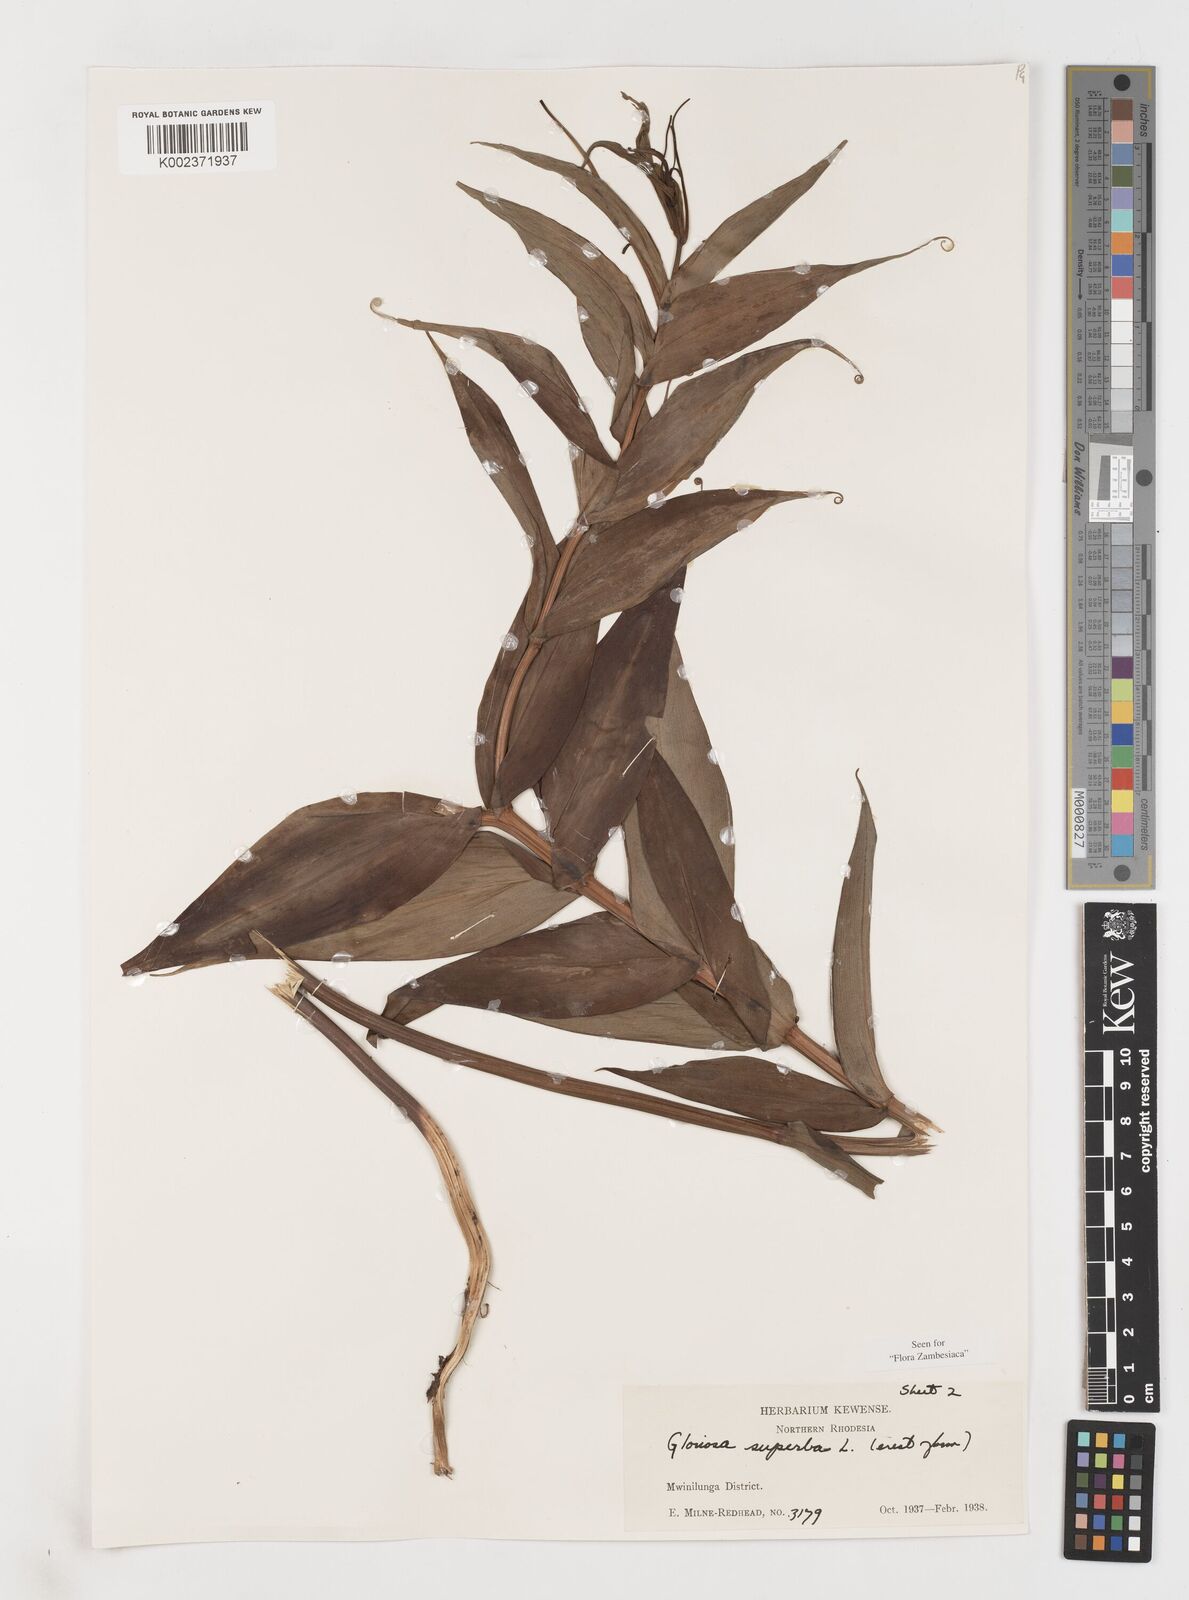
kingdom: Plantae
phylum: Tracheophyta
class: Liliopsida
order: Liliales
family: Colchicaceae
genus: Gloriosa
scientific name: Gloriosa simplex
